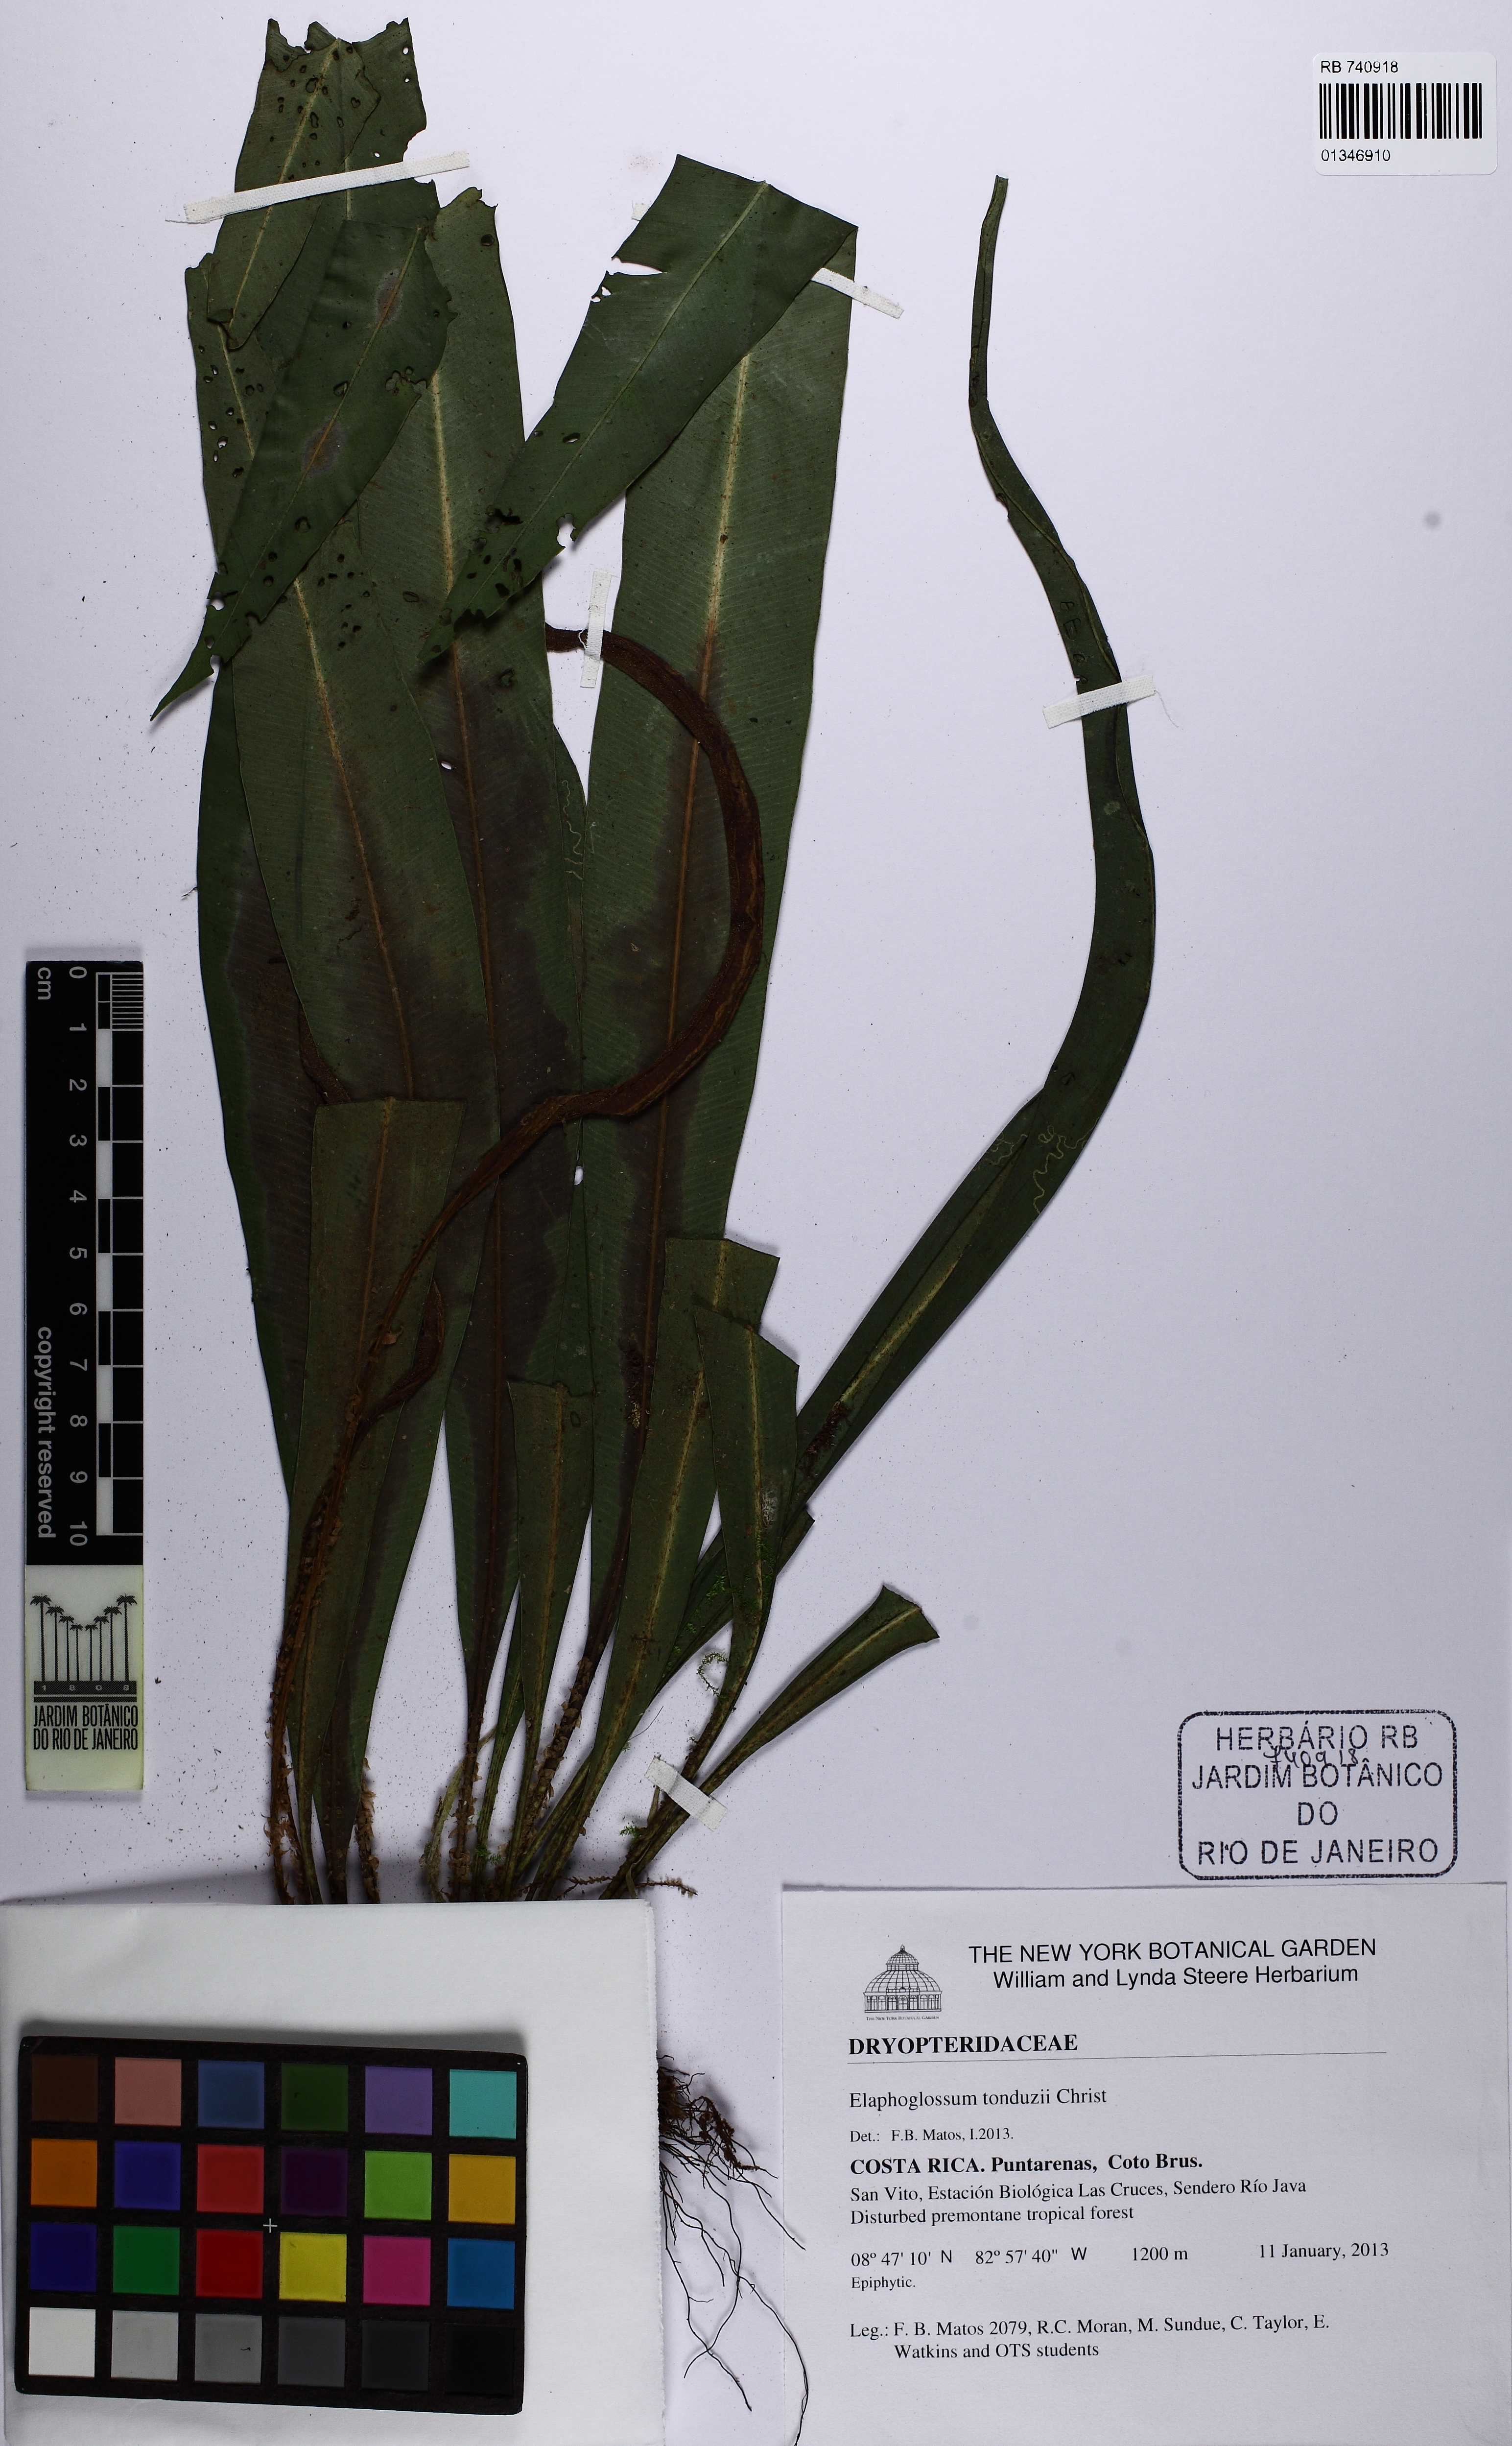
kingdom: Plantae
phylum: Tracheophyta
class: Polypodiopsida
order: Polypodiales
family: Dryopteridaceae
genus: Elaphoglossum
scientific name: Elaphoglossum tonduzii
